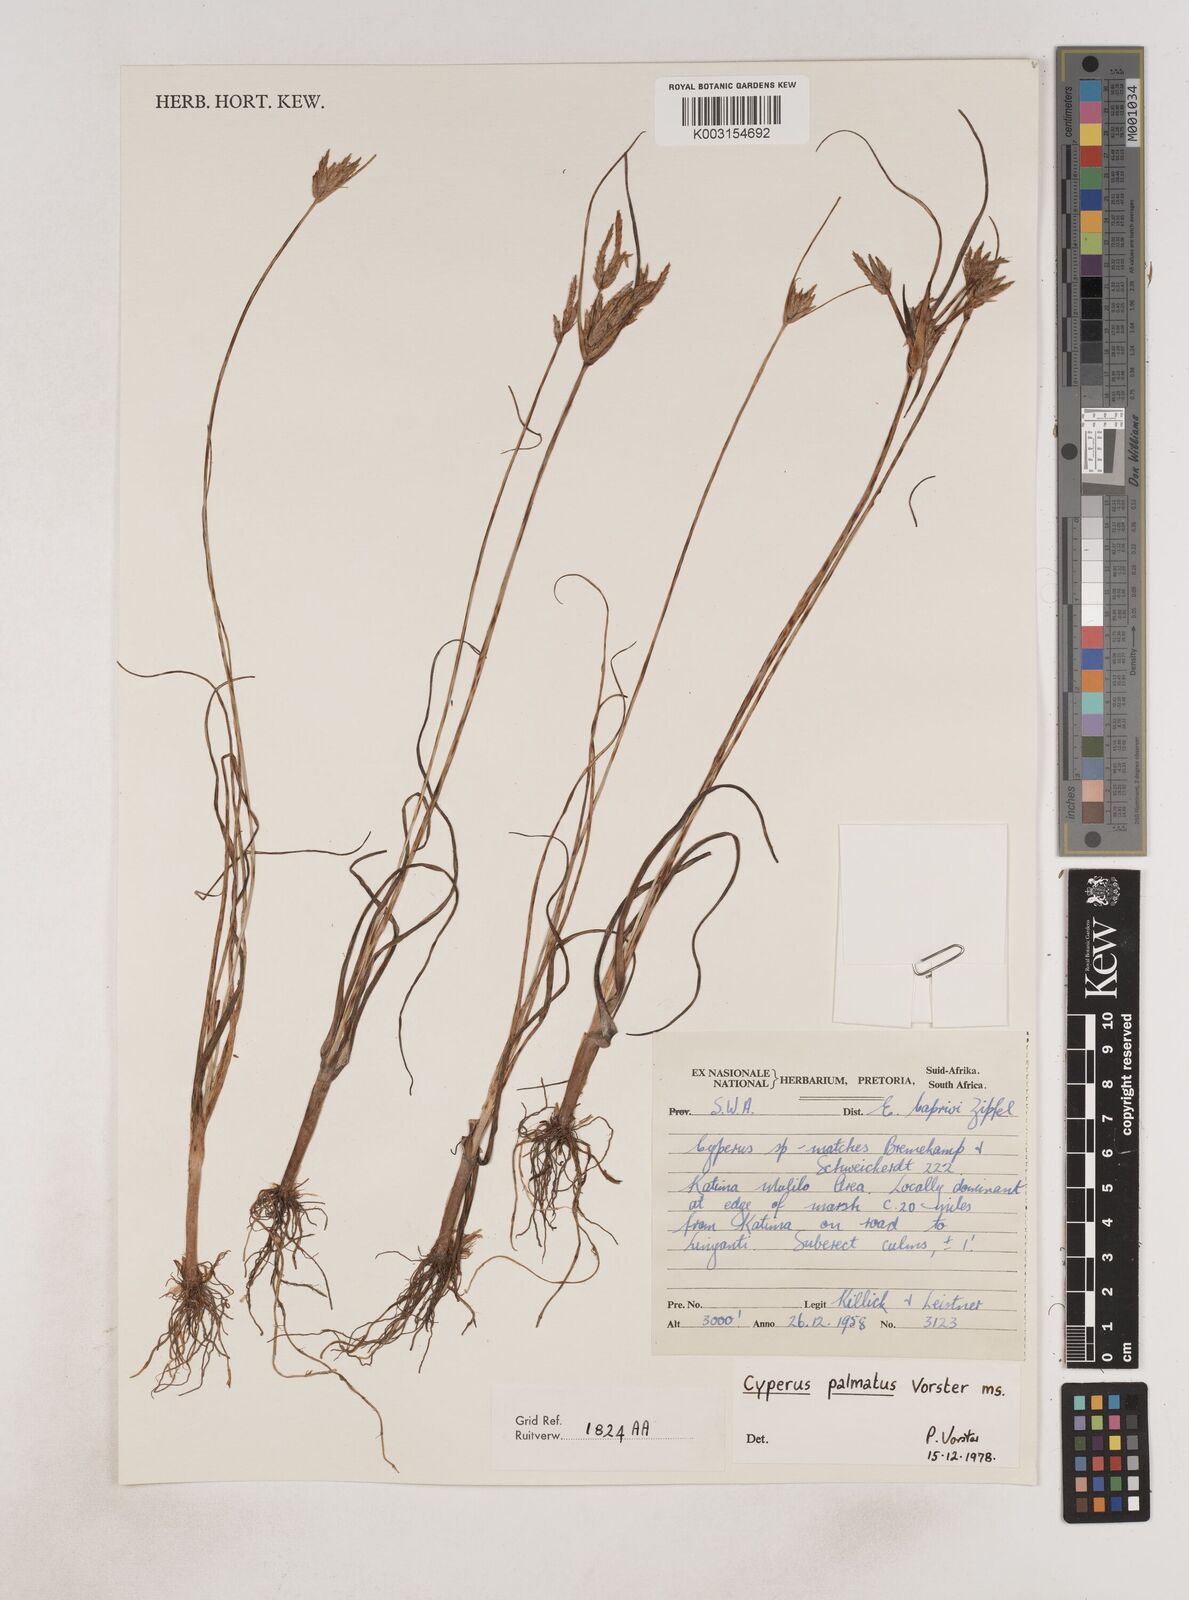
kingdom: Plantae
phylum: Tracheophyta
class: Liliopsida
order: Poales
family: Cyperaceae
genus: Cyperus
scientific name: Cyperus
